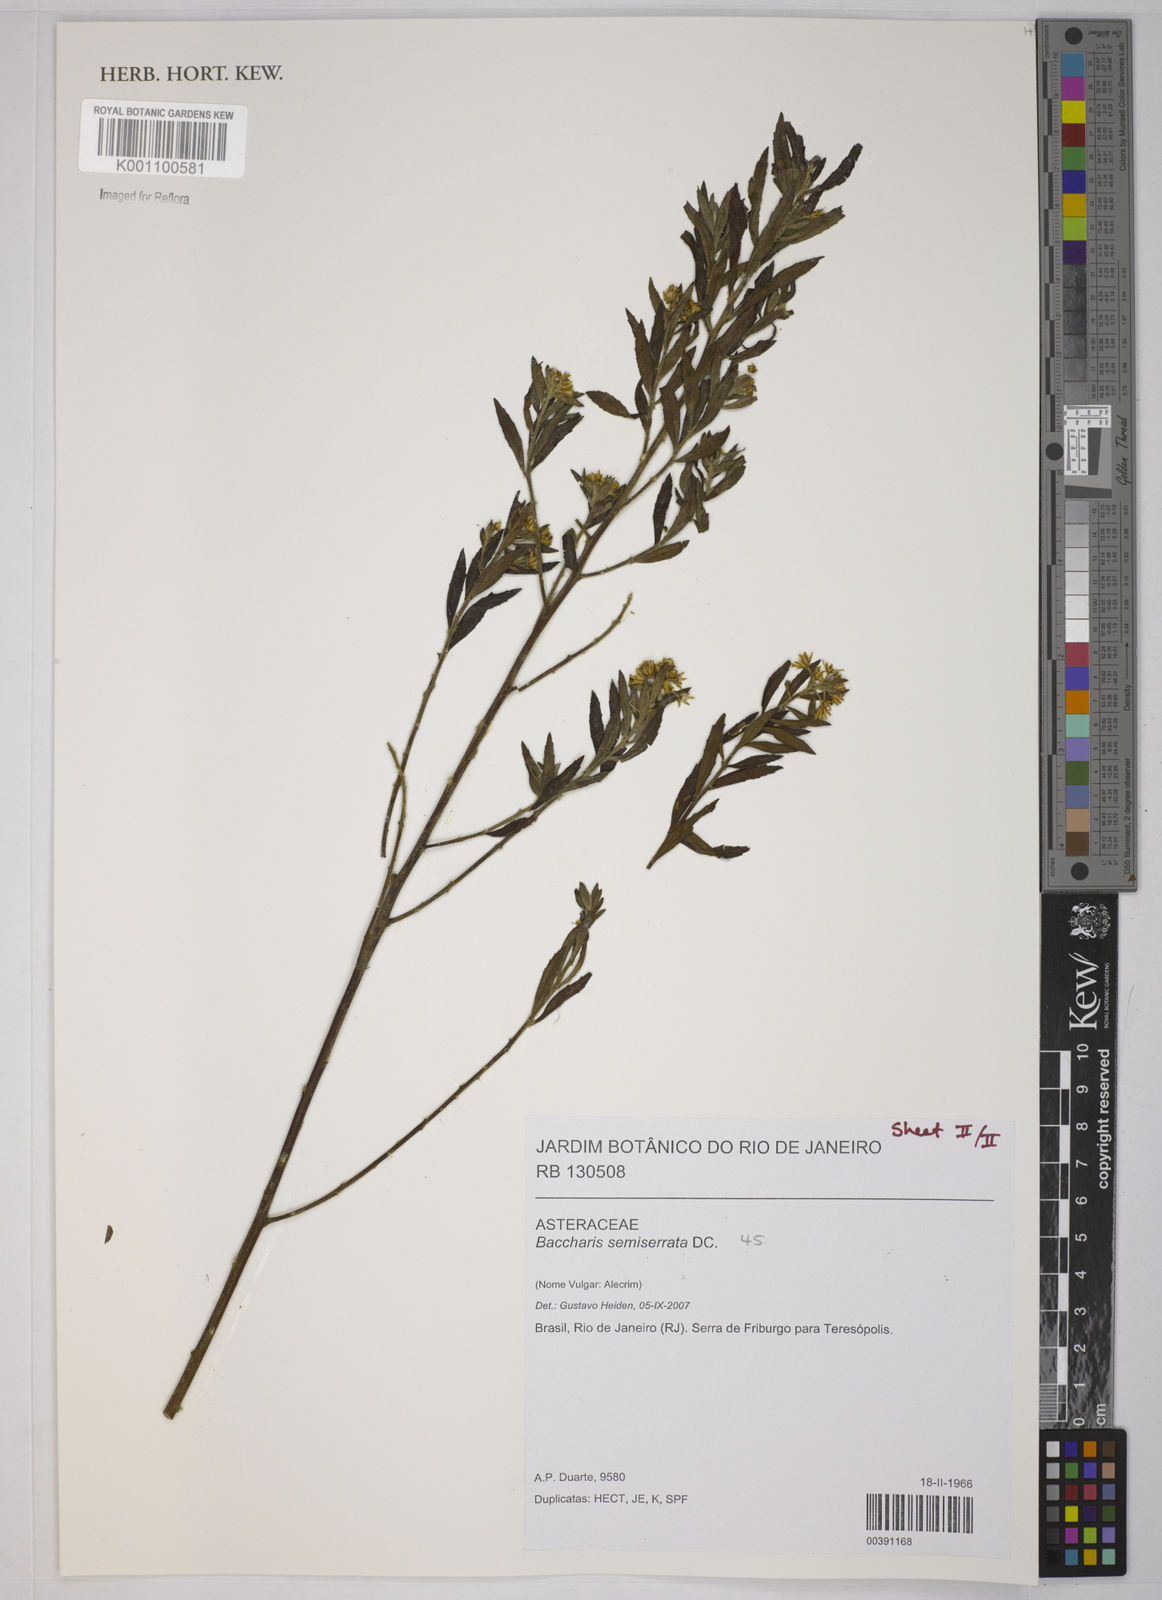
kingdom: Plantae
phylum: Tracheophyta
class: Magnoliopsida
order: Asterales
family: Asteraceae
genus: Baccharis
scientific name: Baccharis gnidiifolia
